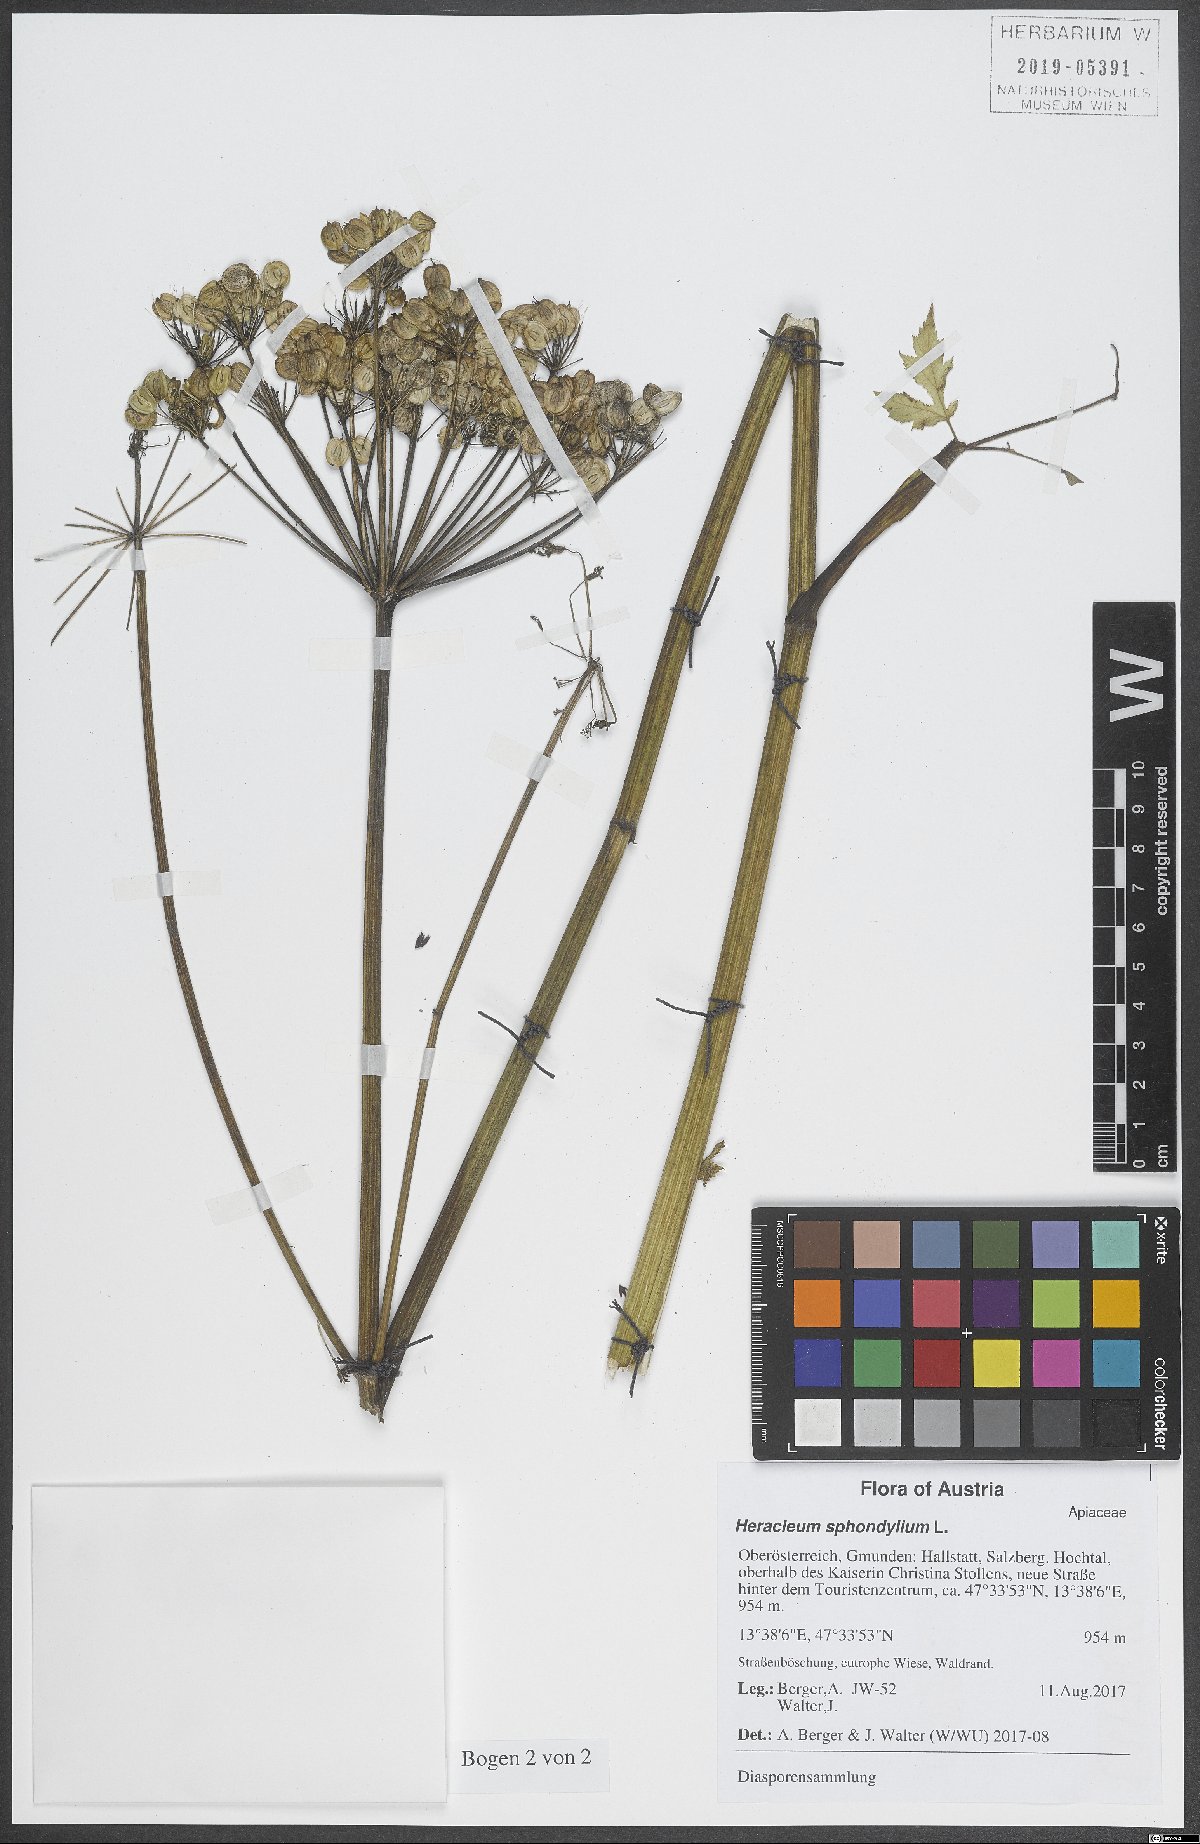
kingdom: Plantae
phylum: Tracheophyta
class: Magnoliopsida
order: Apiales
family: Apiaceae
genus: Heracleum
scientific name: Heracleum sphondylium
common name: Hogweed
